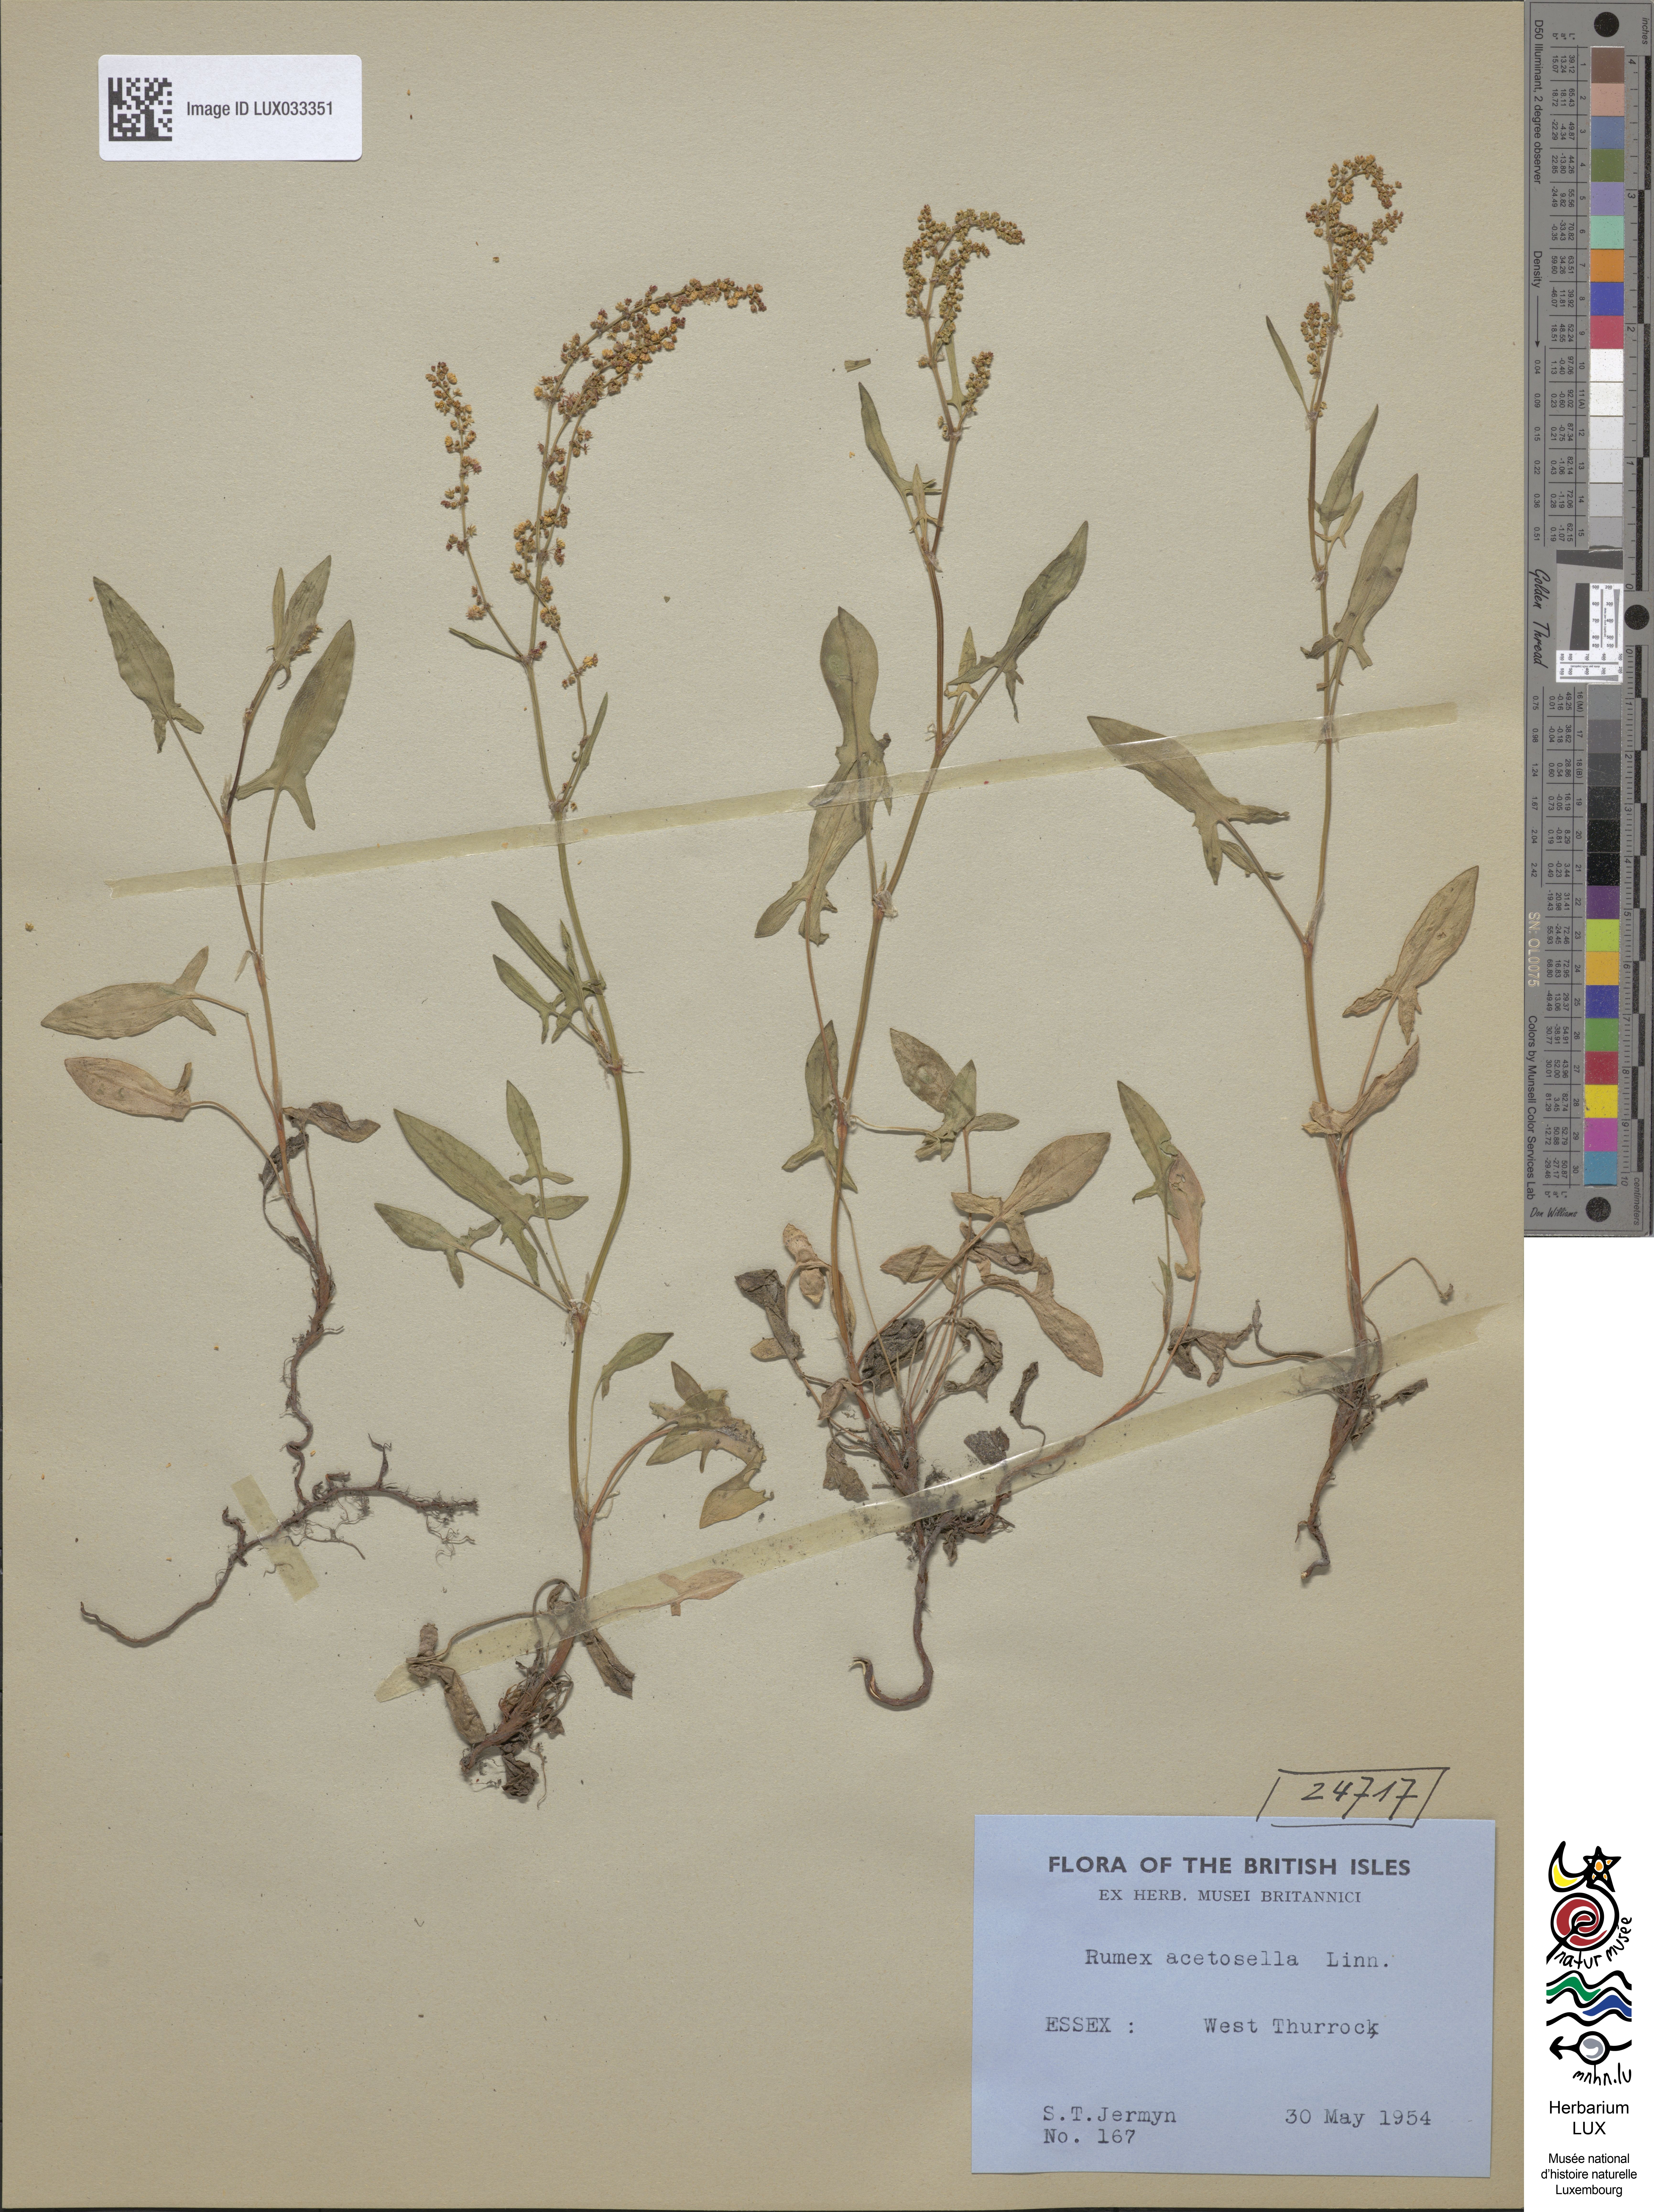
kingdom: Plantae
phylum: Tracheophyta
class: Magnoliopsida
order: Caryophyllales
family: Polygonaceae
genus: Rumex
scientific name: Rumex acetosella
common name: Common sheep sorrel
